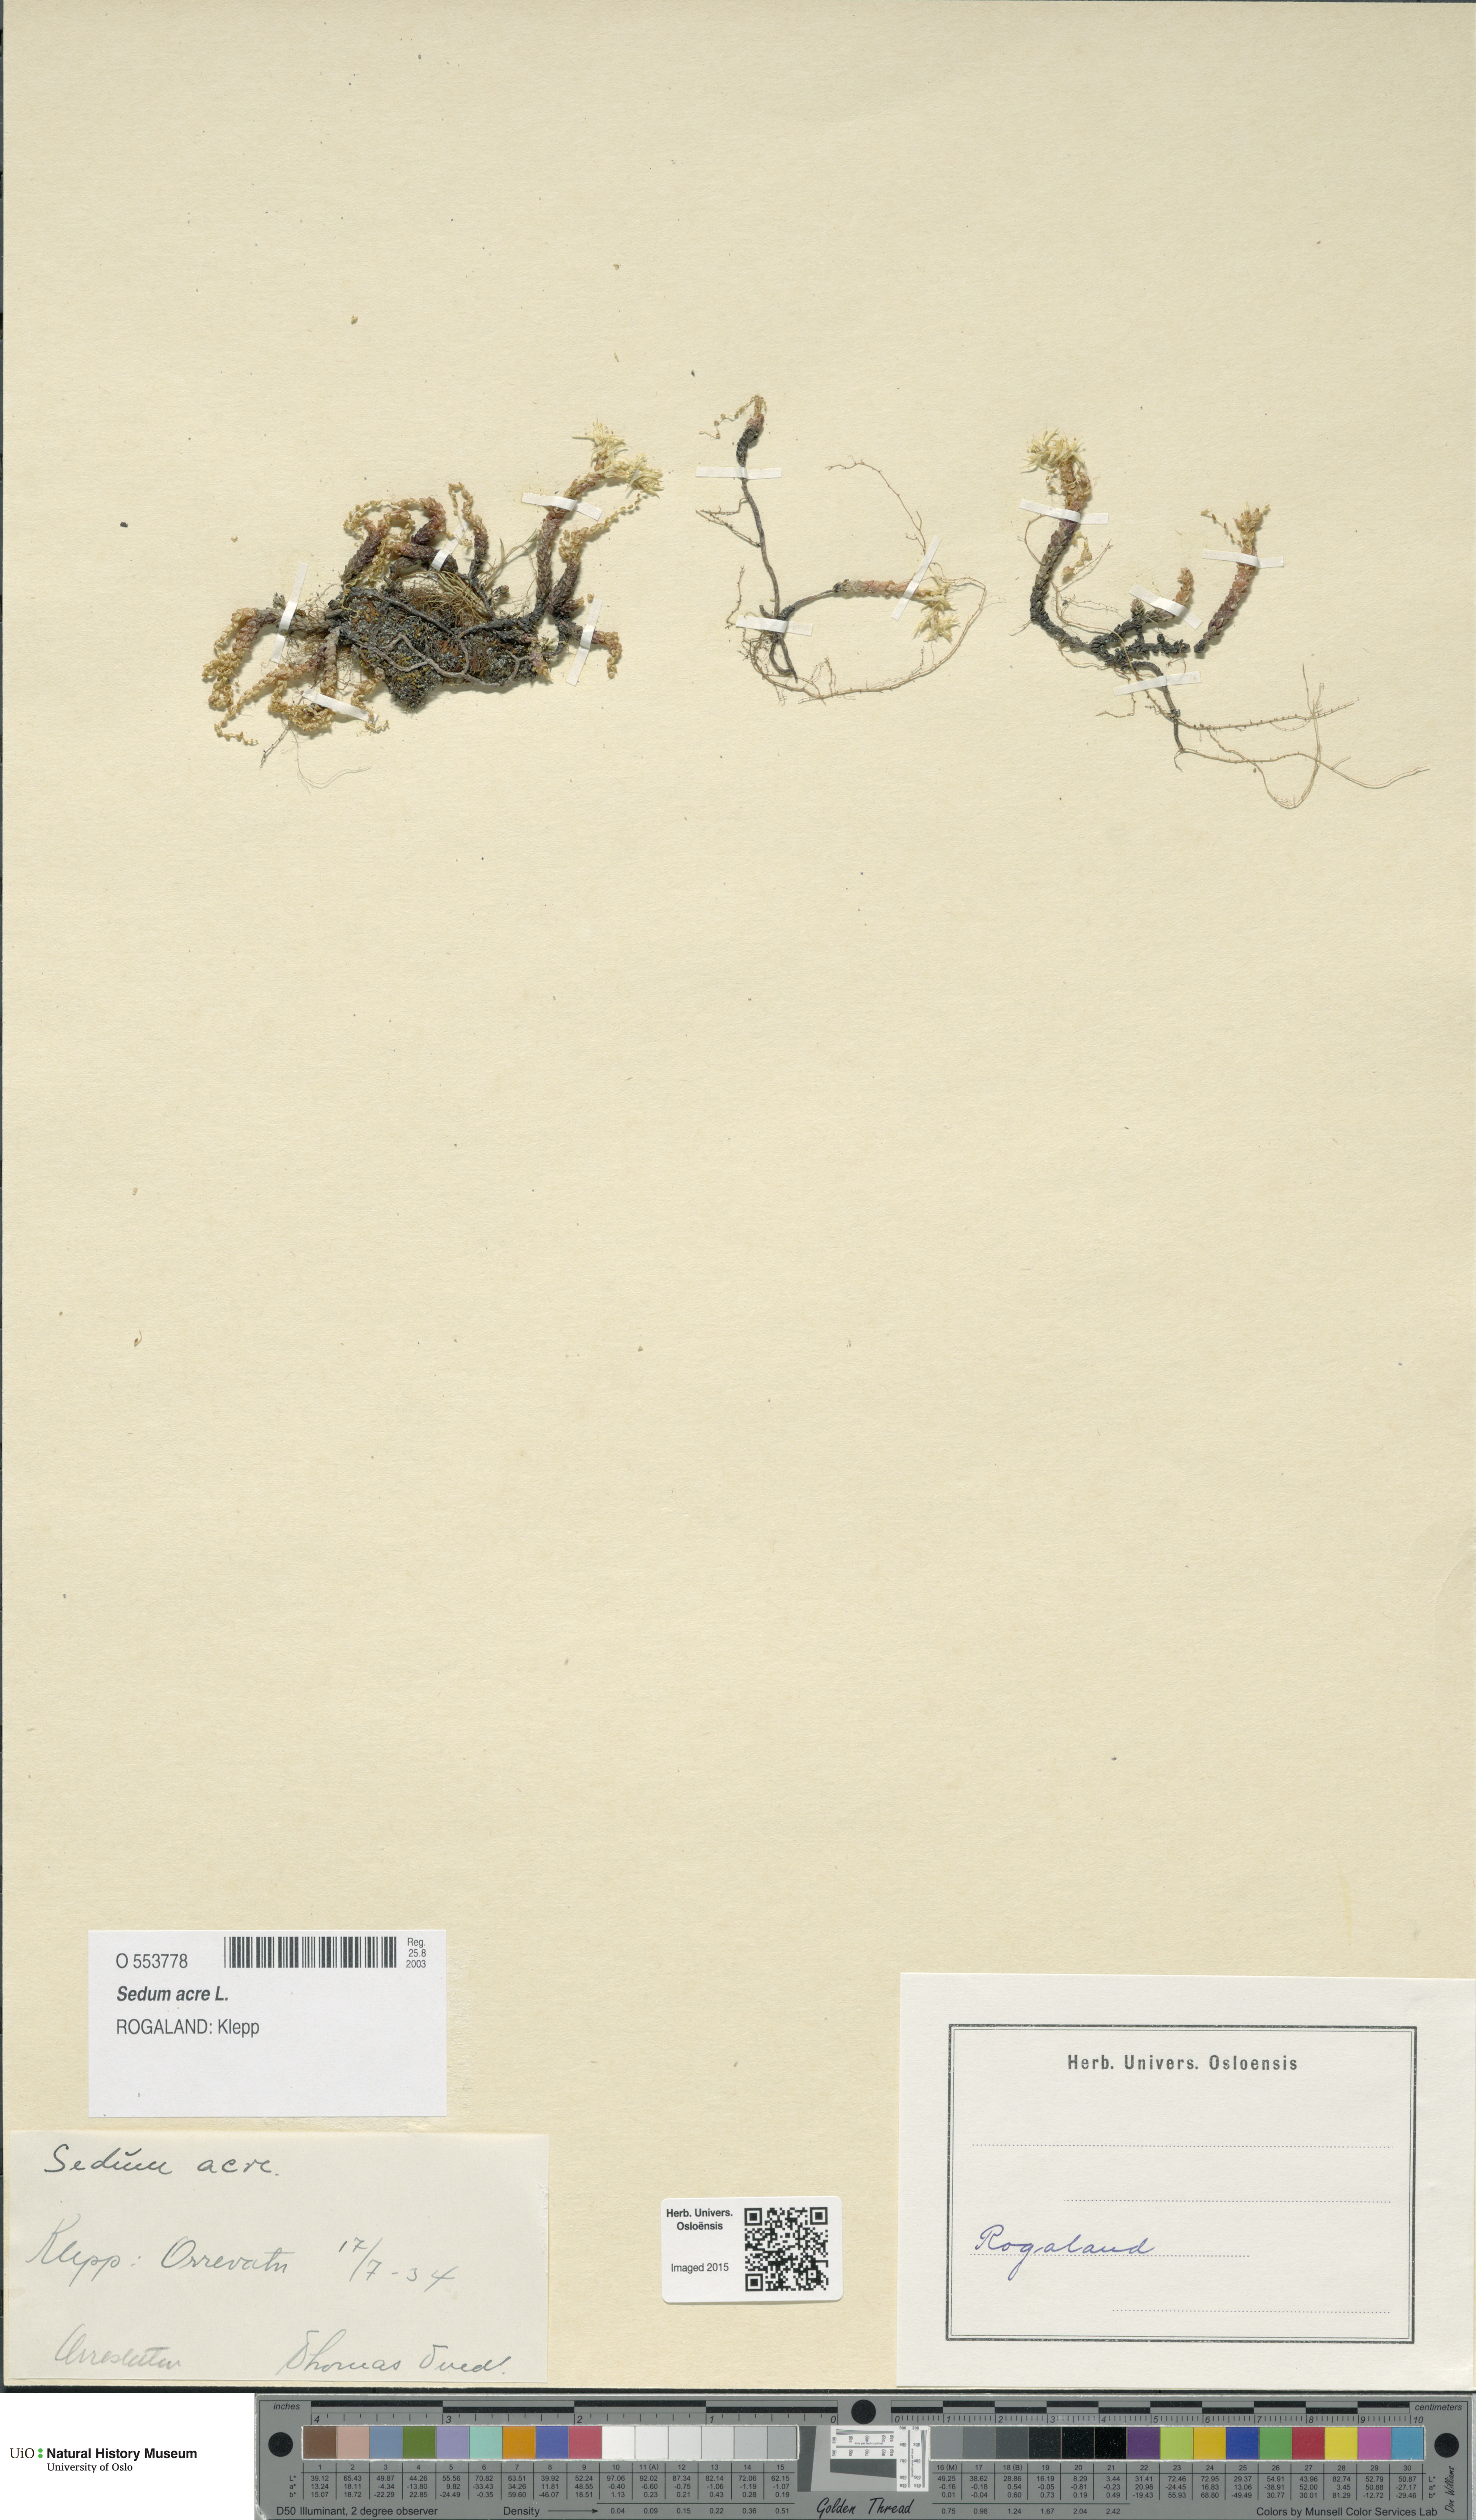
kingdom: Plantae
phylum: Tracheophyta
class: Magnoliopsida
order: Saxifragales
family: Crassulaceae
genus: Sedum
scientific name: Sedum acre
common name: Biting stonecrop
